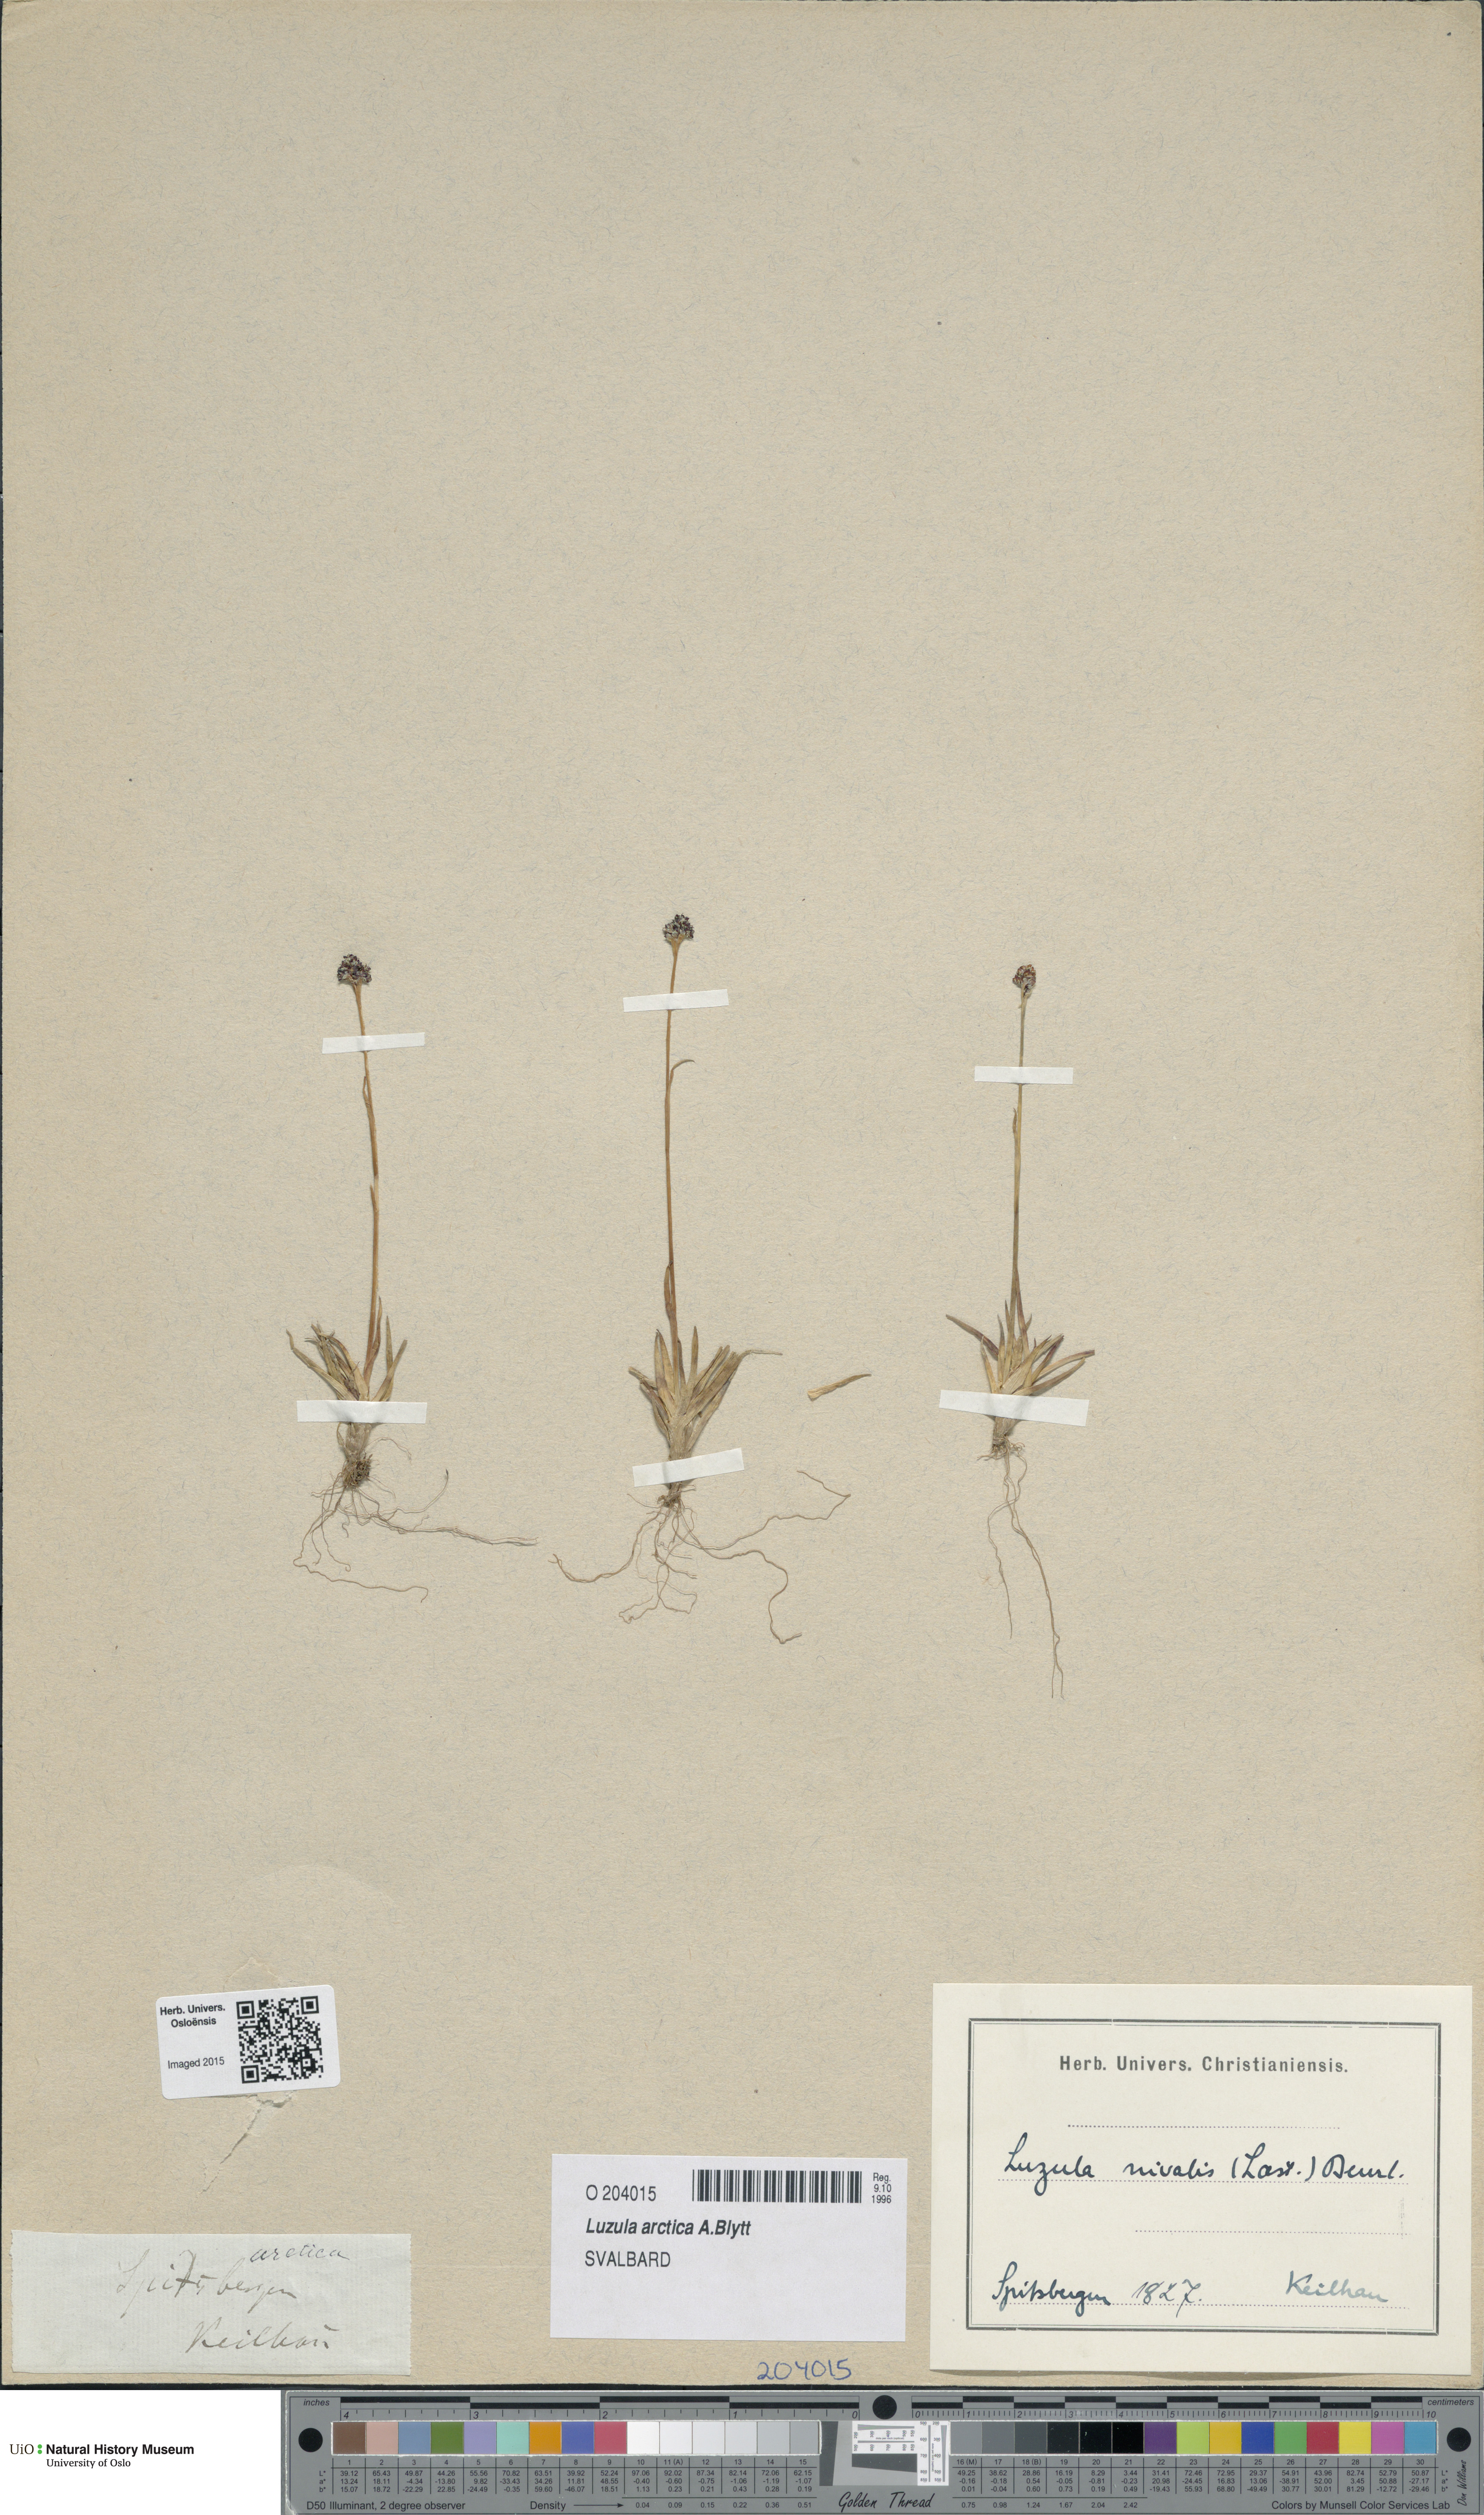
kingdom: Plantae
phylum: Tracheophyta
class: Liliopsida
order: Poales
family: Juncaceae
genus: Luzula
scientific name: Luzula nivalis
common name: Arctic woodrush
